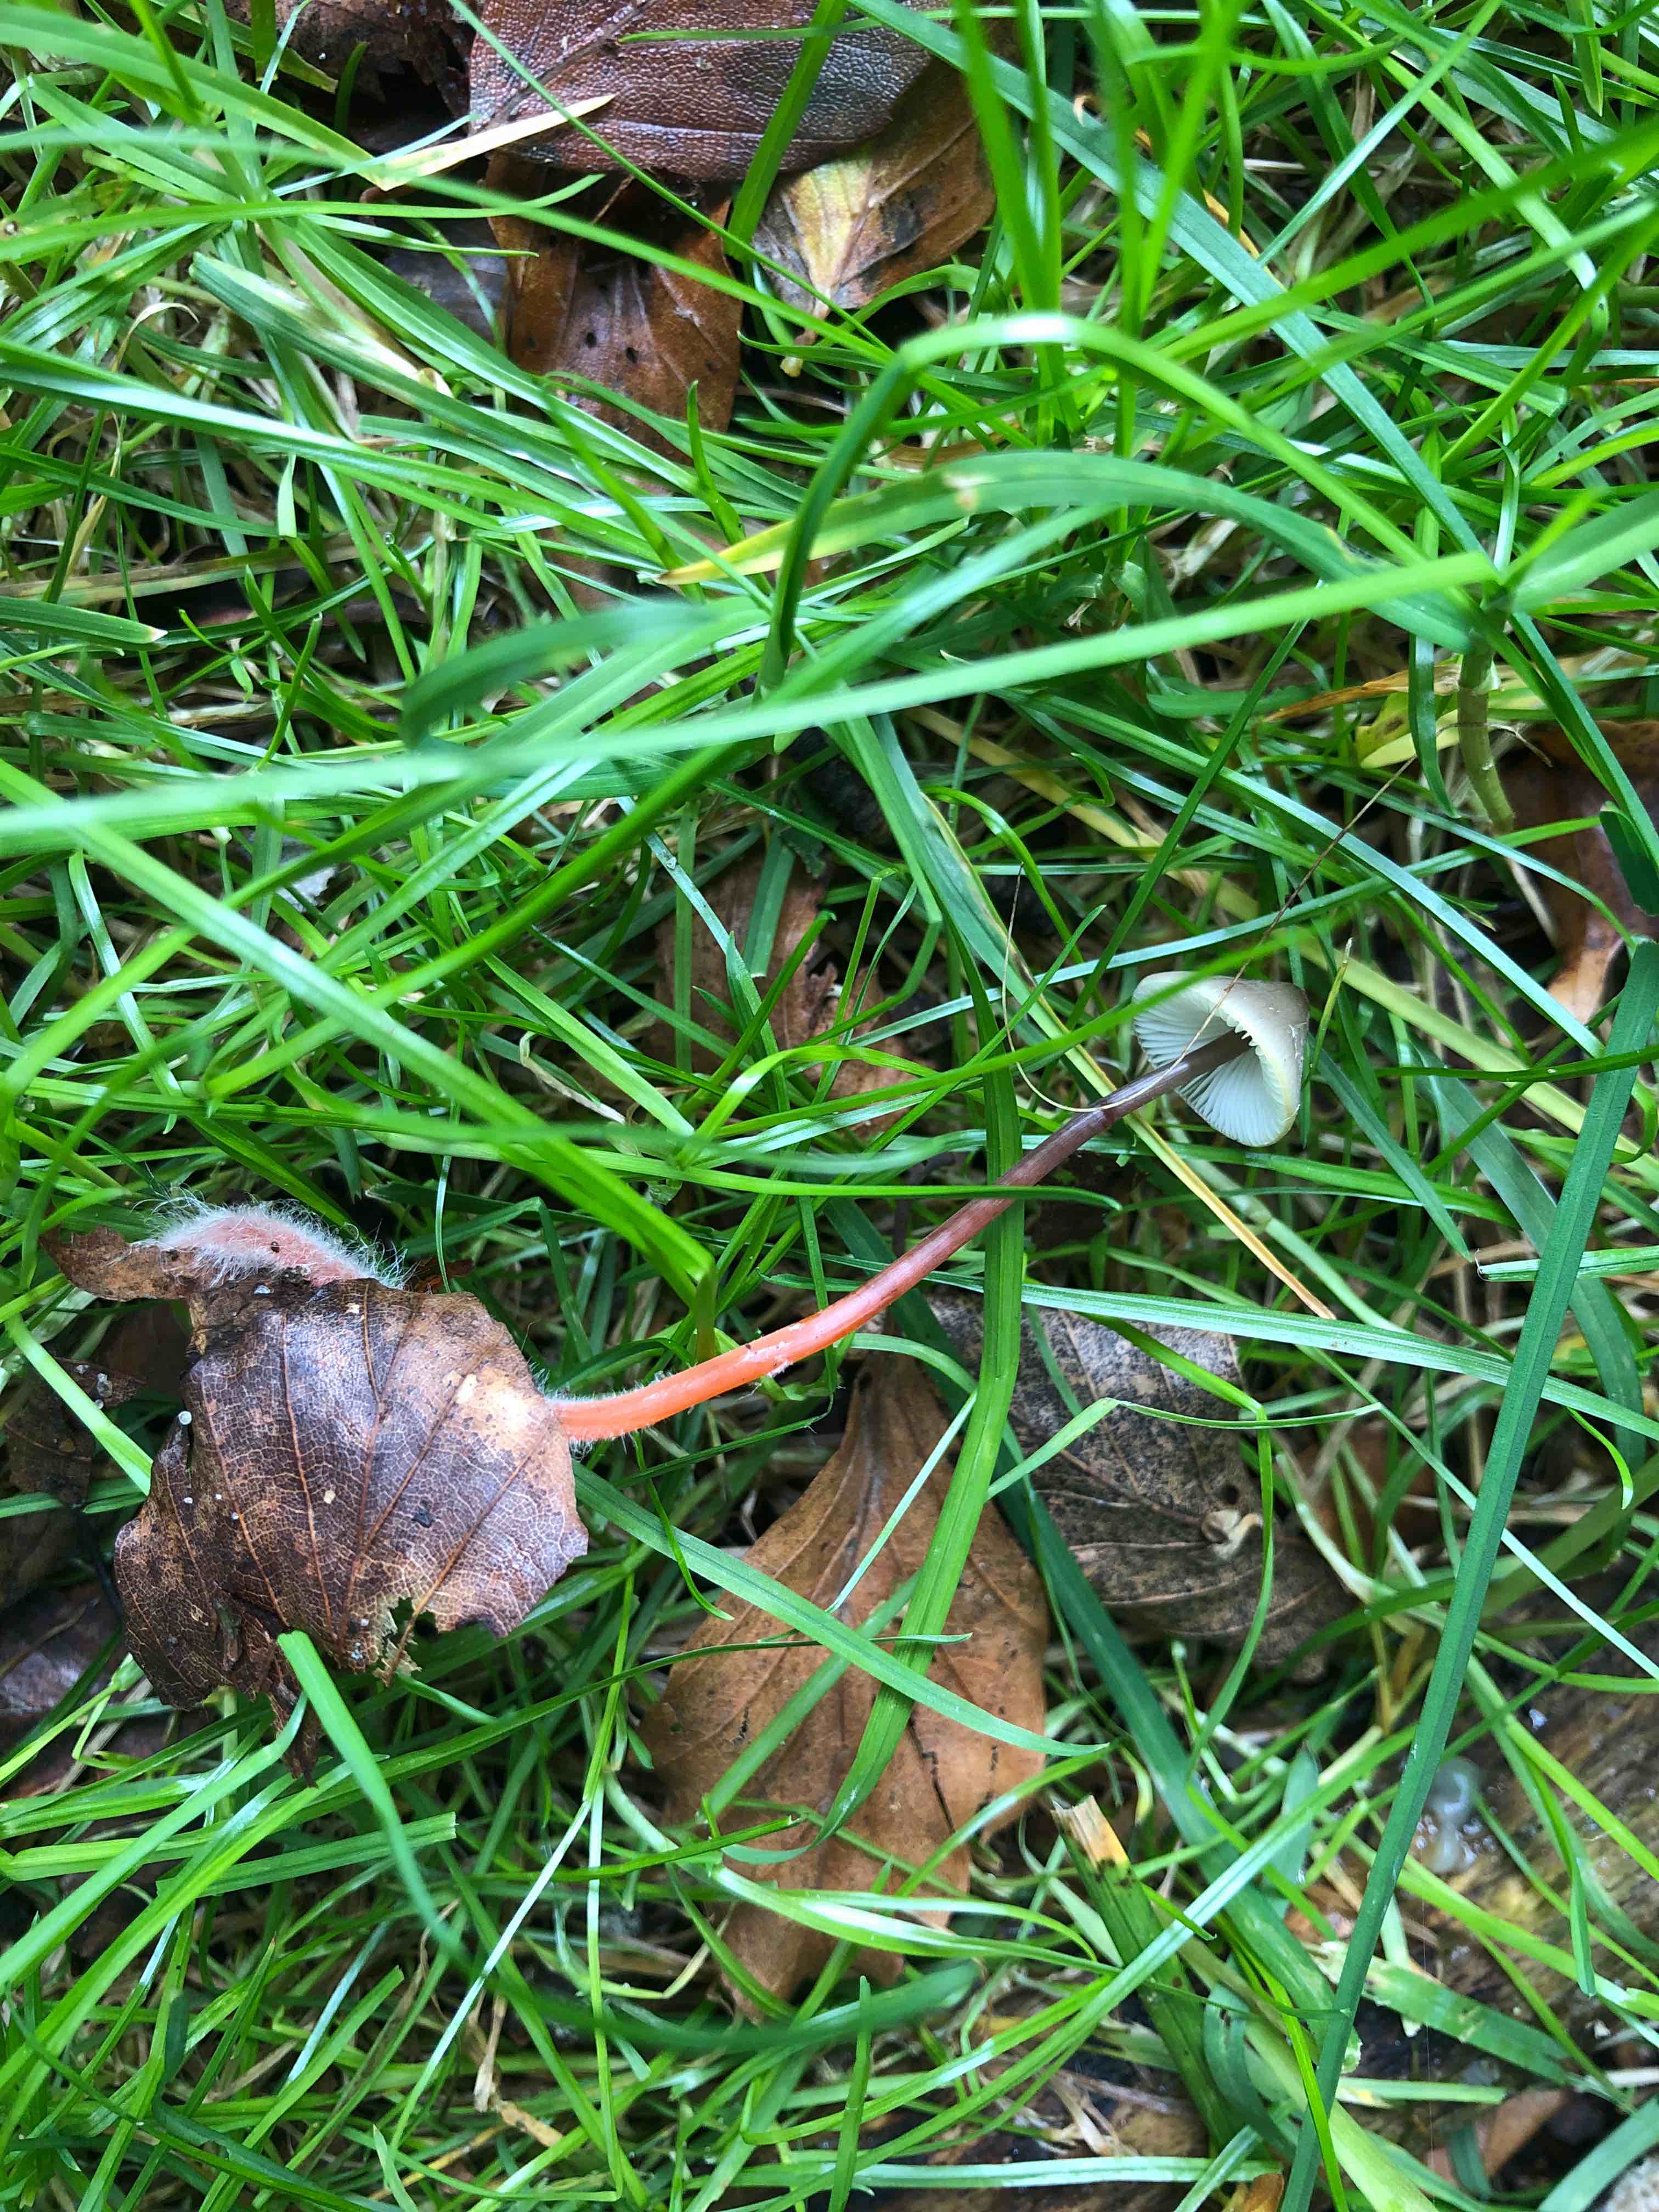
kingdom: Fungi
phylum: Basidiomycota
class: Agaricomycetes
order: Agaricales
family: Mycenaceae
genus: Mycena
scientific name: Mycena crocata
